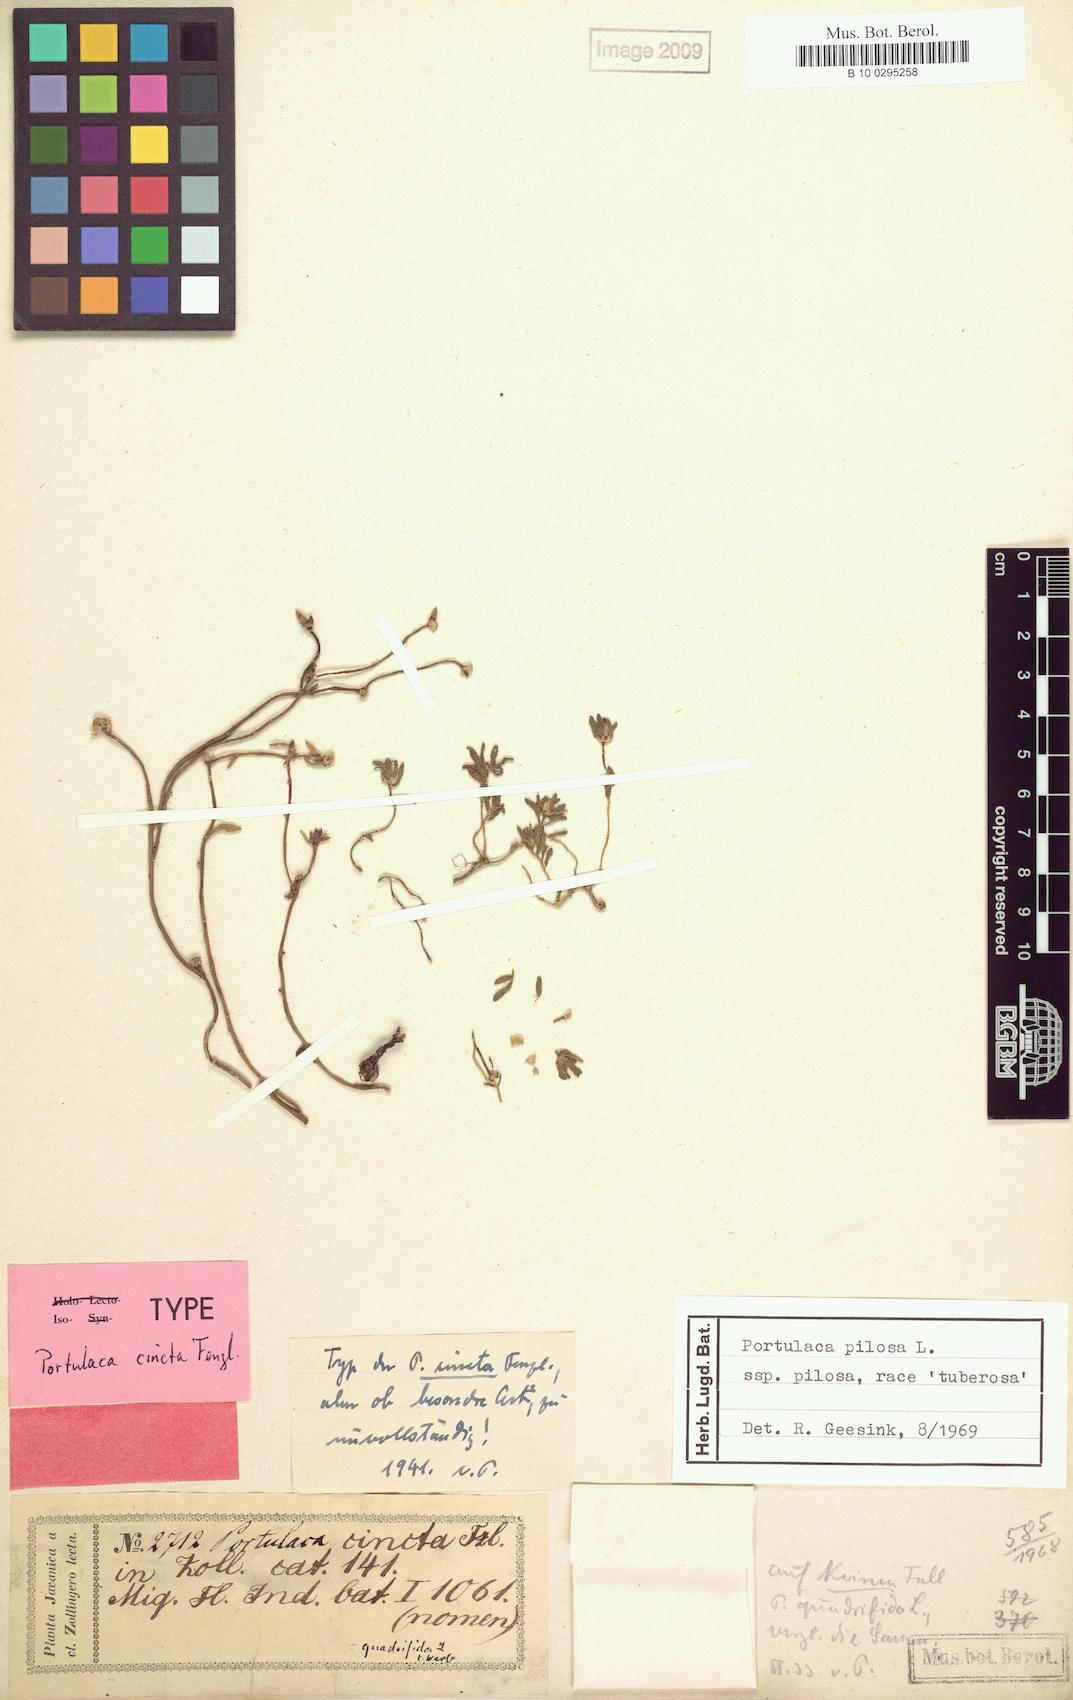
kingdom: Plantae
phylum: Tracheophyta
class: Magnoliopsida
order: Caryophyllales
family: Portulacaceae
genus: Portulaca
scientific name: Portulaca pilosa
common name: Kiss me quick
